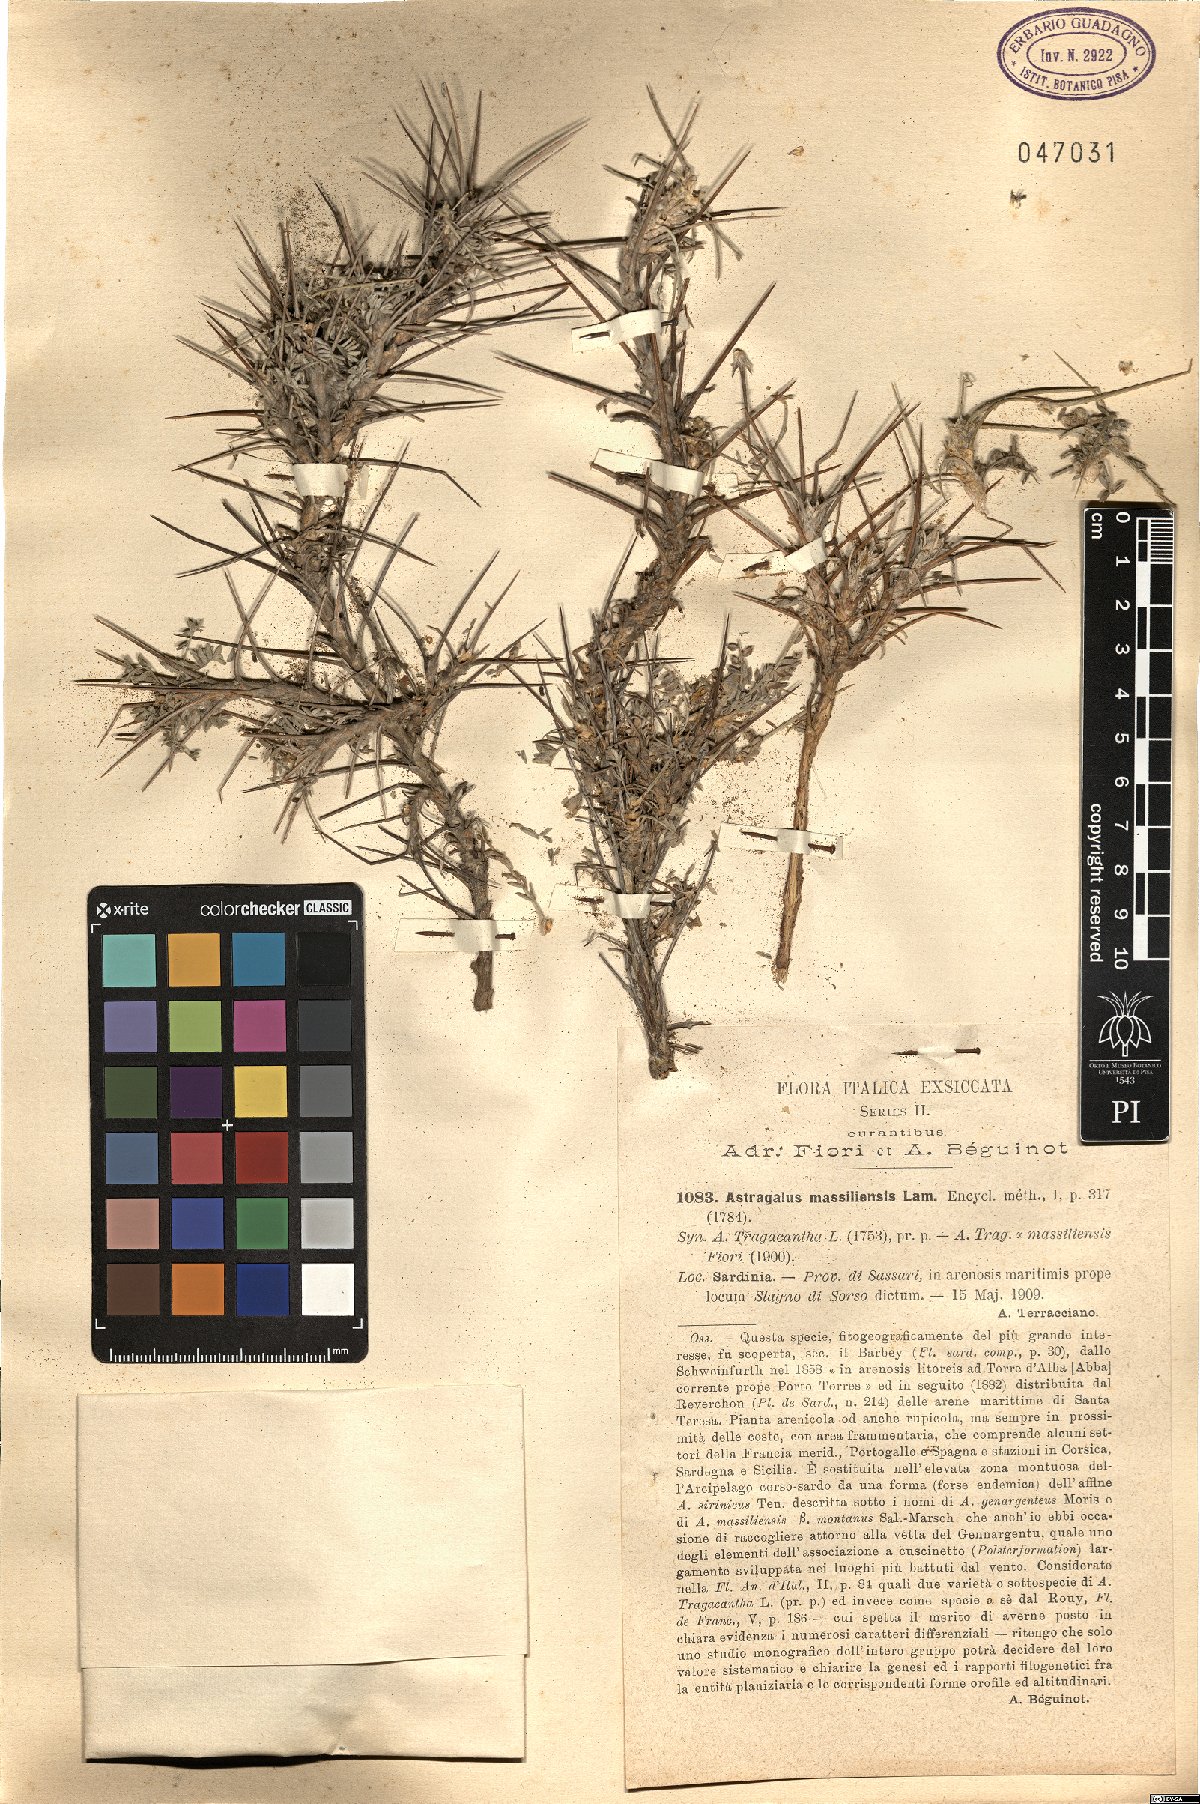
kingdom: Plantae
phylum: Tracheophyta
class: Magnoliopsida
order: Fabales
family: Fabaceae
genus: Astragalus
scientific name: Astragalus tragacantha
